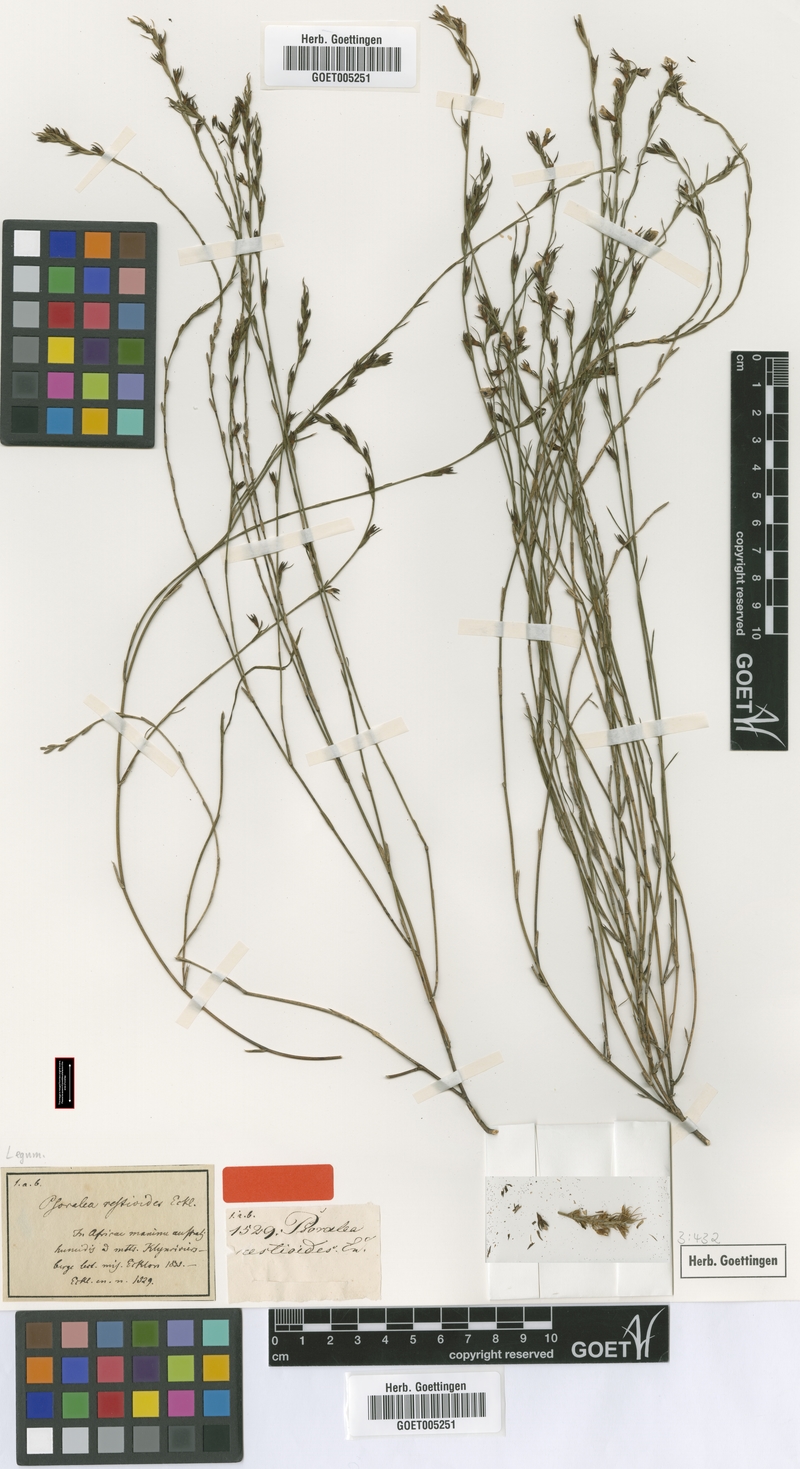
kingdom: Plantae
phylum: Tracheophyta
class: Magnoliopsida
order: Fabales
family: Fabaceae
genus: Psoralea
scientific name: Psoralea restioides
